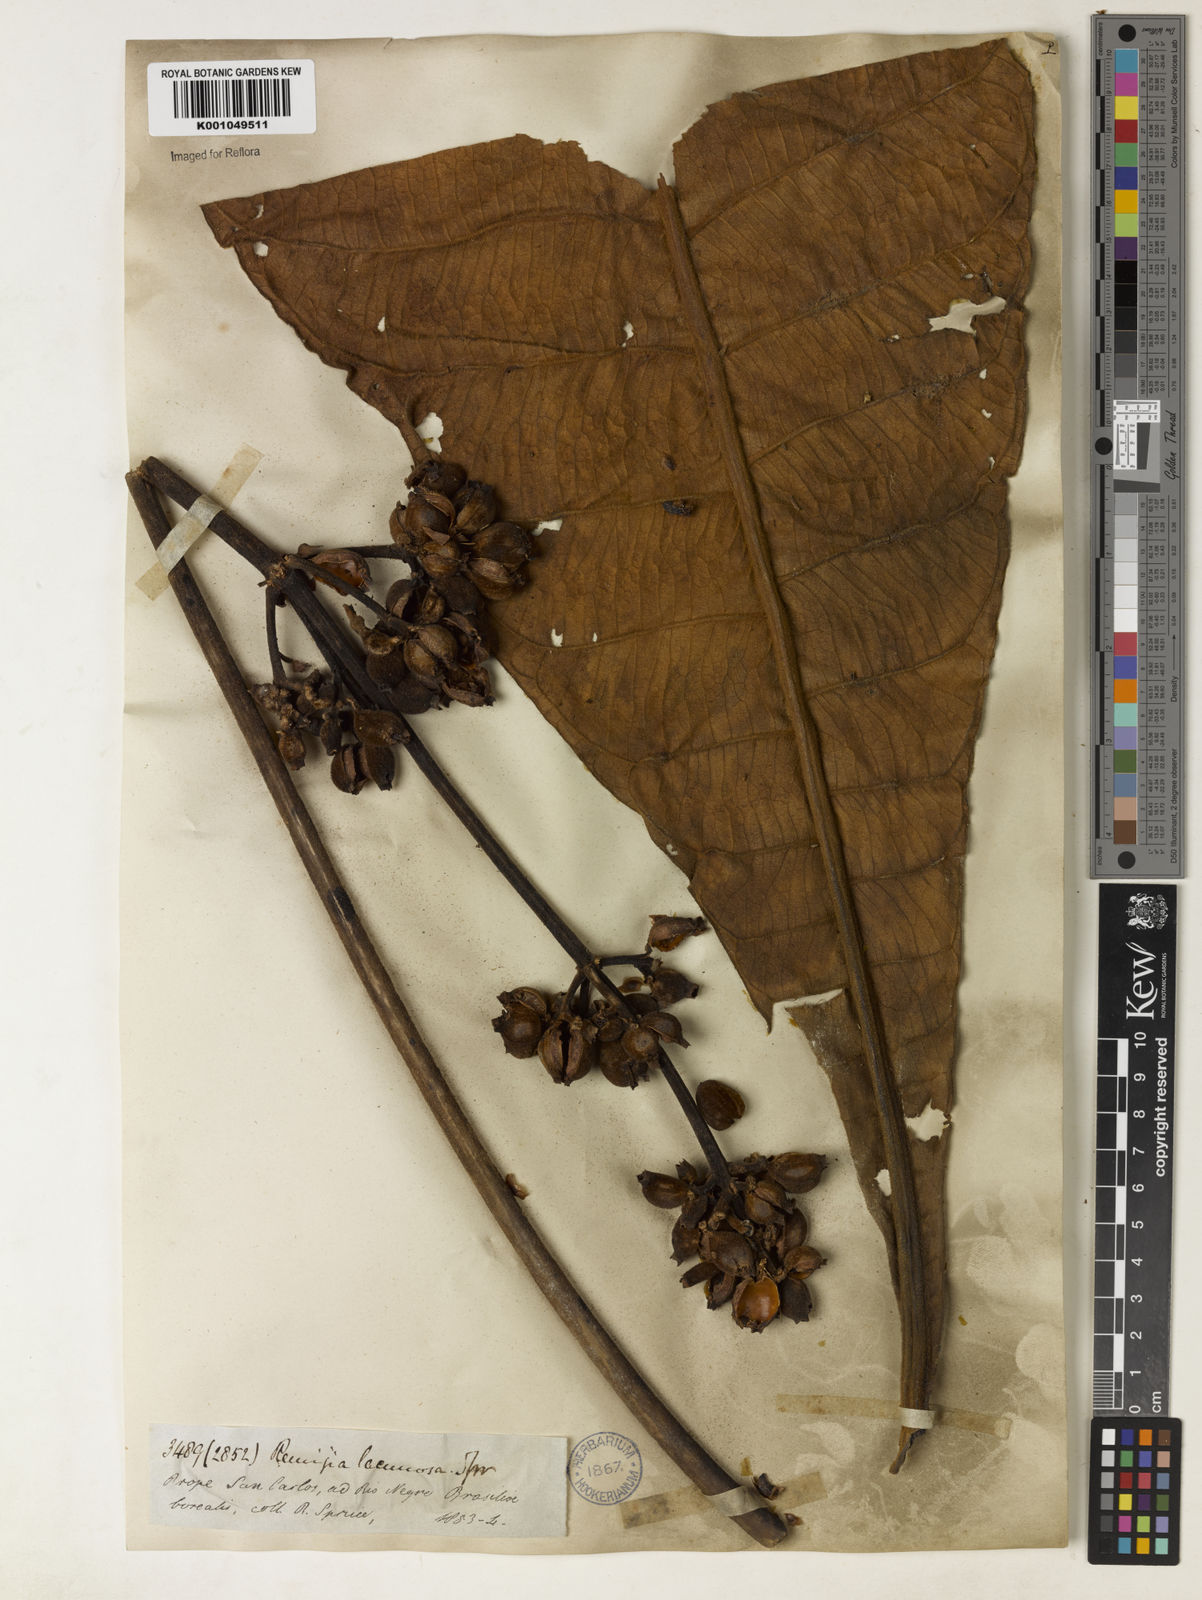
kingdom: Plantae
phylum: Tracheophyta
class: Magnoliopsida
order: Gentianales
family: Rubiaceae
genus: Remijia
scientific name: Remijia lacunosa
